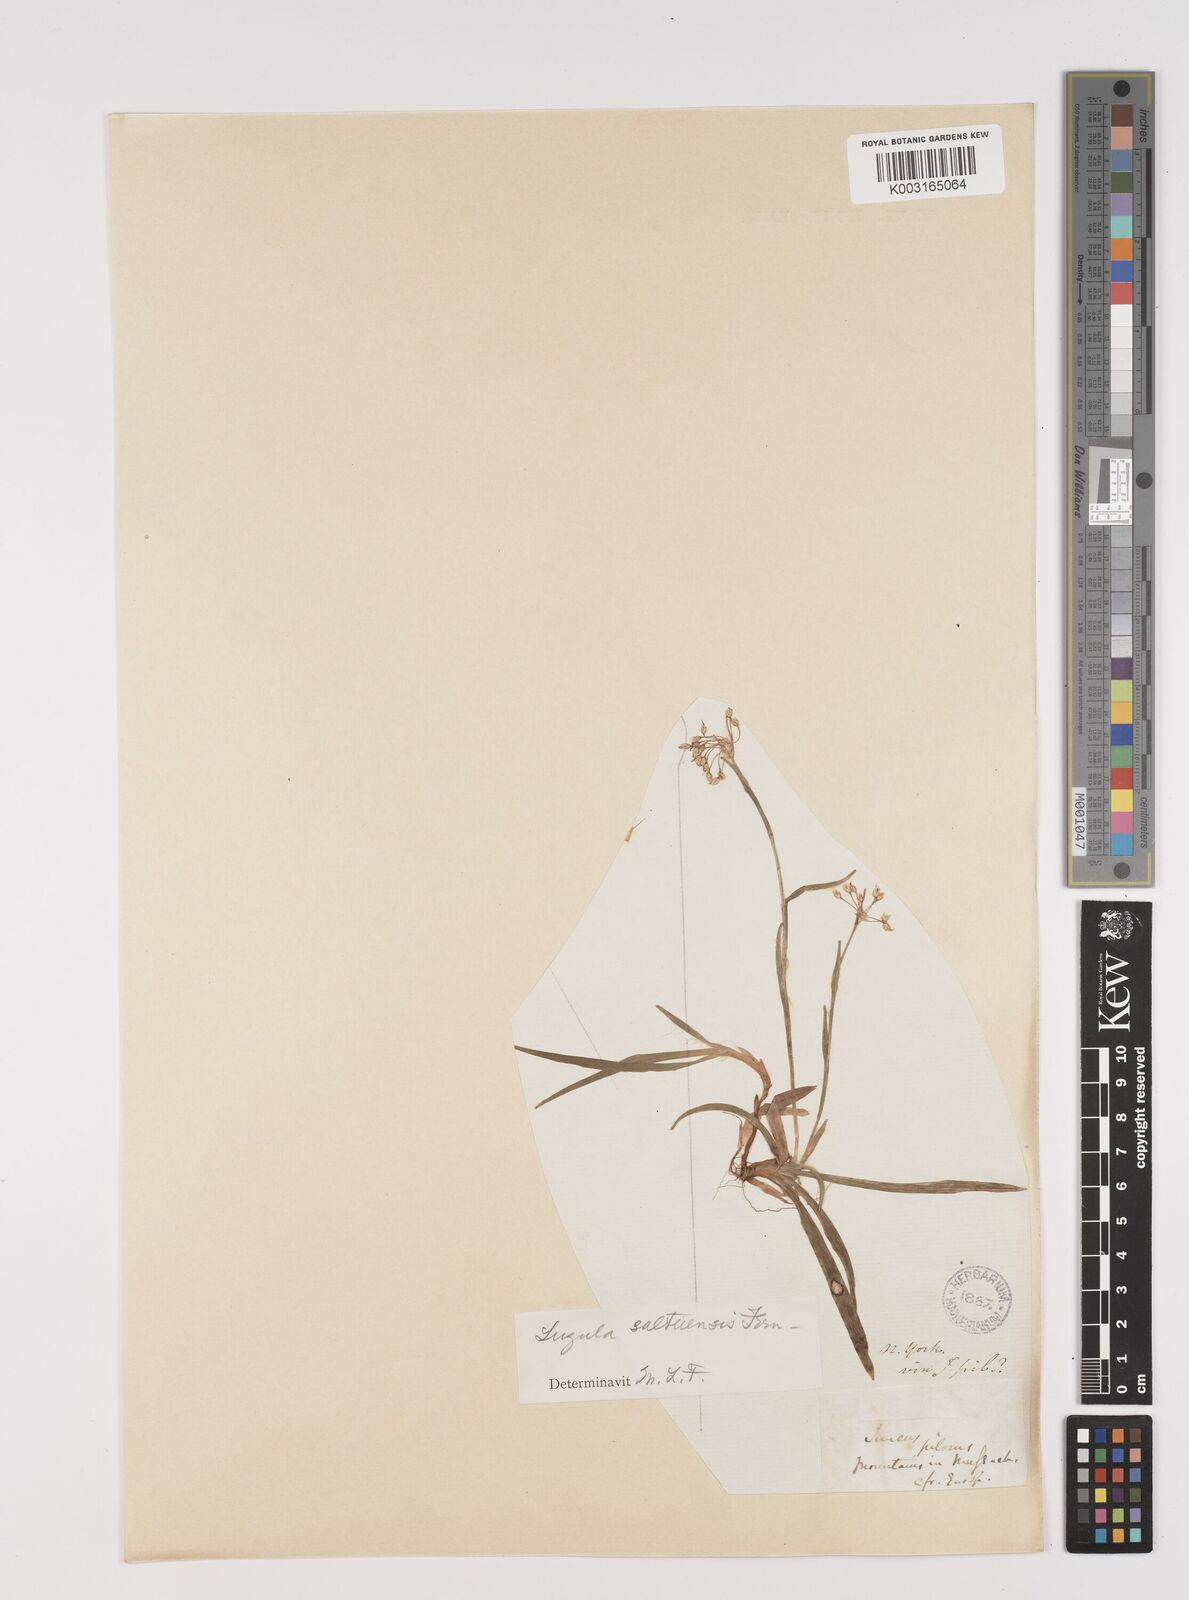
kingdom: Plantae
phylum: Tracheophyta
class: Liliopsida
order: Poales
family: Juncaceae
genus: Luzula
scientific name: Luzula acuminata
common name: Hairy woodrush
